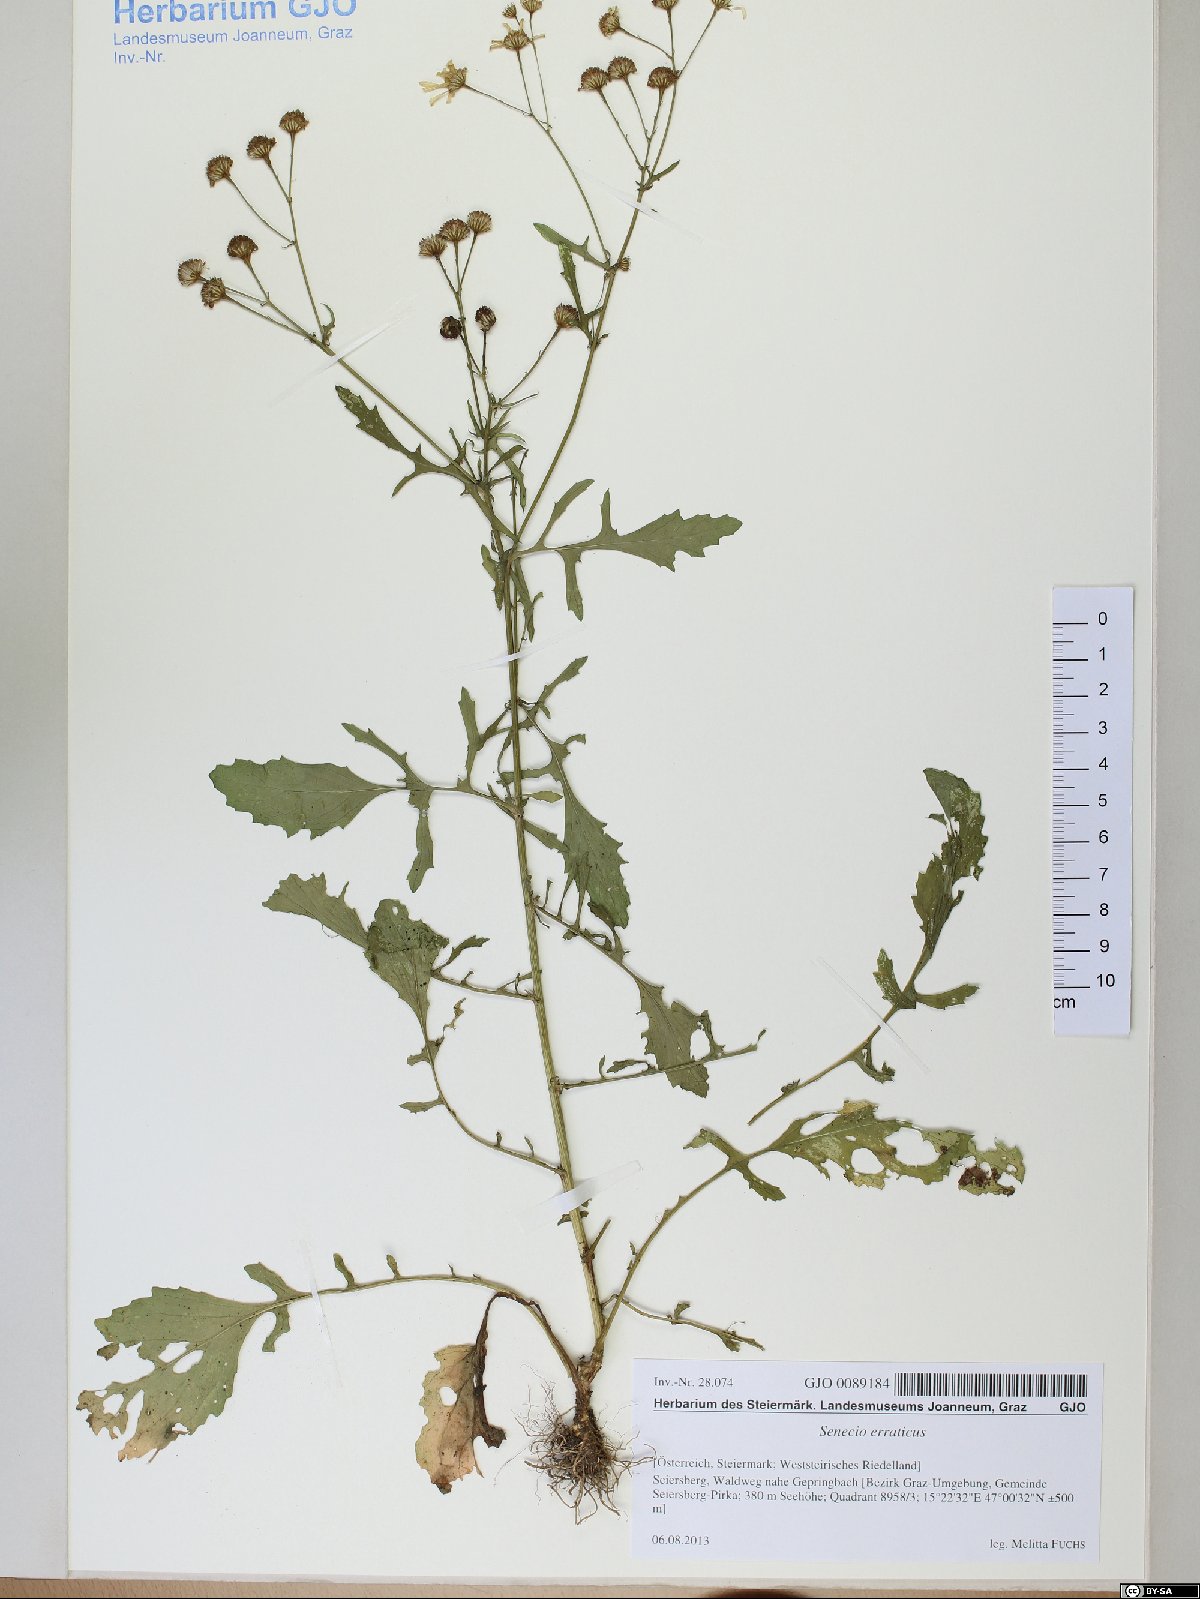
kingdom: Plantae
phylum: Tracheophyta
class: Magnoliopsida
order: Asterales
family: Asteraceae
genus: Jacobaea
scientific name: Jacobaea erratica
